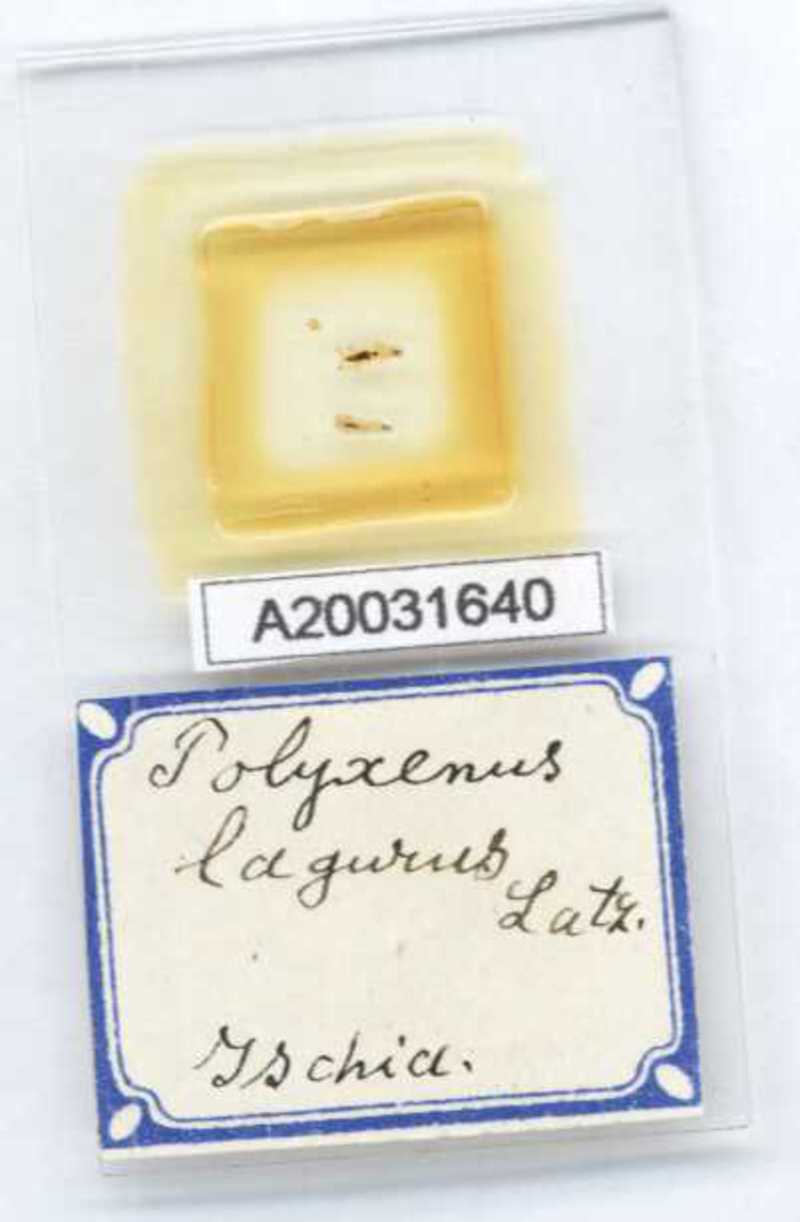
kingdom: Animalia
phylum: Arthropoda
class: Diplopoda
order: Polyxenida
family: Polyxenidae
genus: Polyxenus
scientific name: Polyxenus lagurus
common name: Bristly millipede
